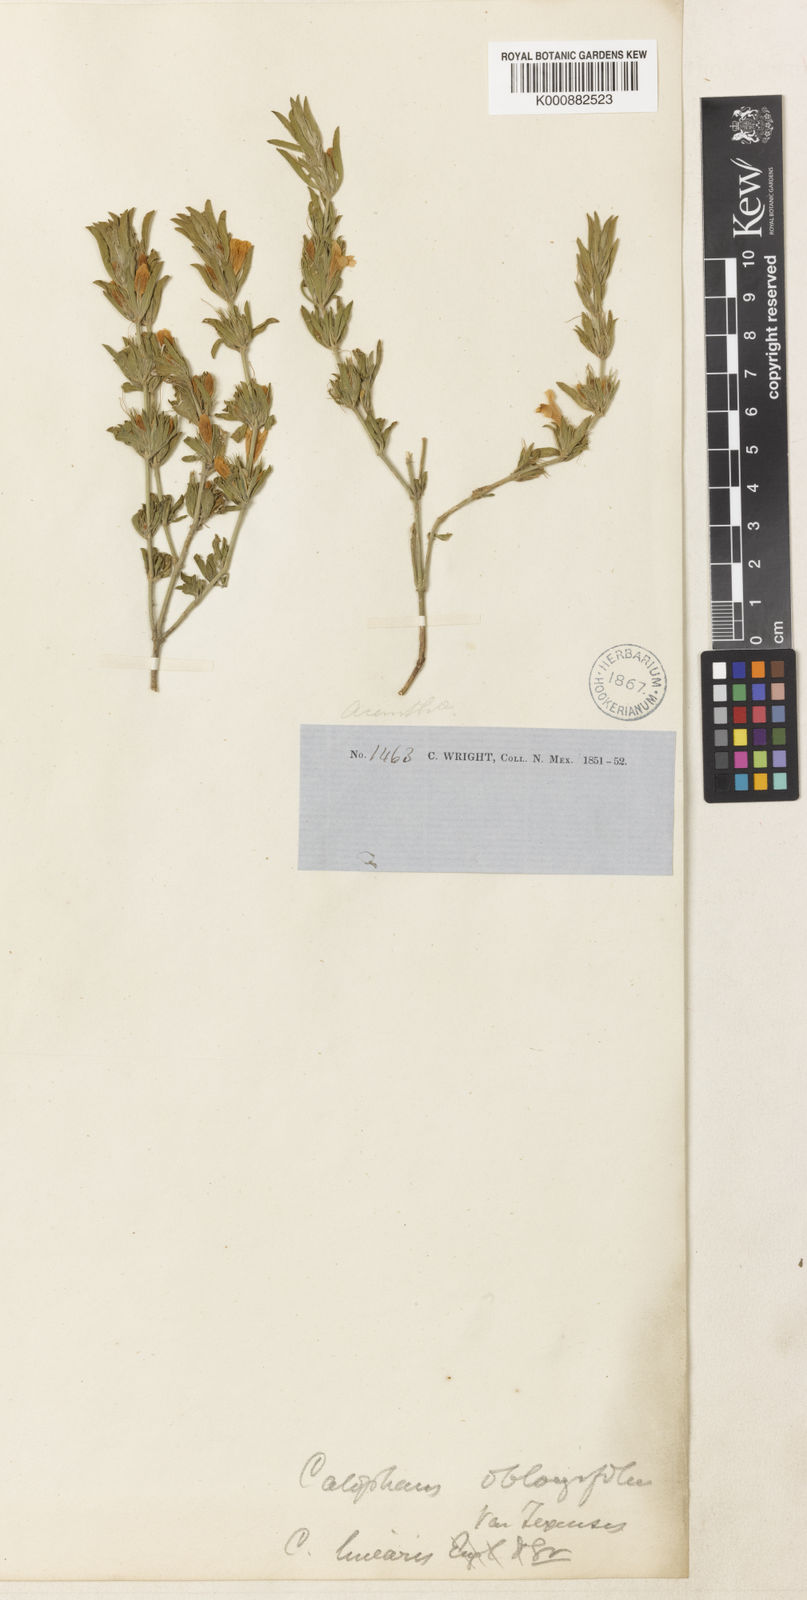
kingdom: Plantae
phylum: Tracheophyta
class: Magnoliopsida
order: Lamiales
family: Acanthaceae
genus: Dyschoriste
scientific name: Dyschoriste decumbens
